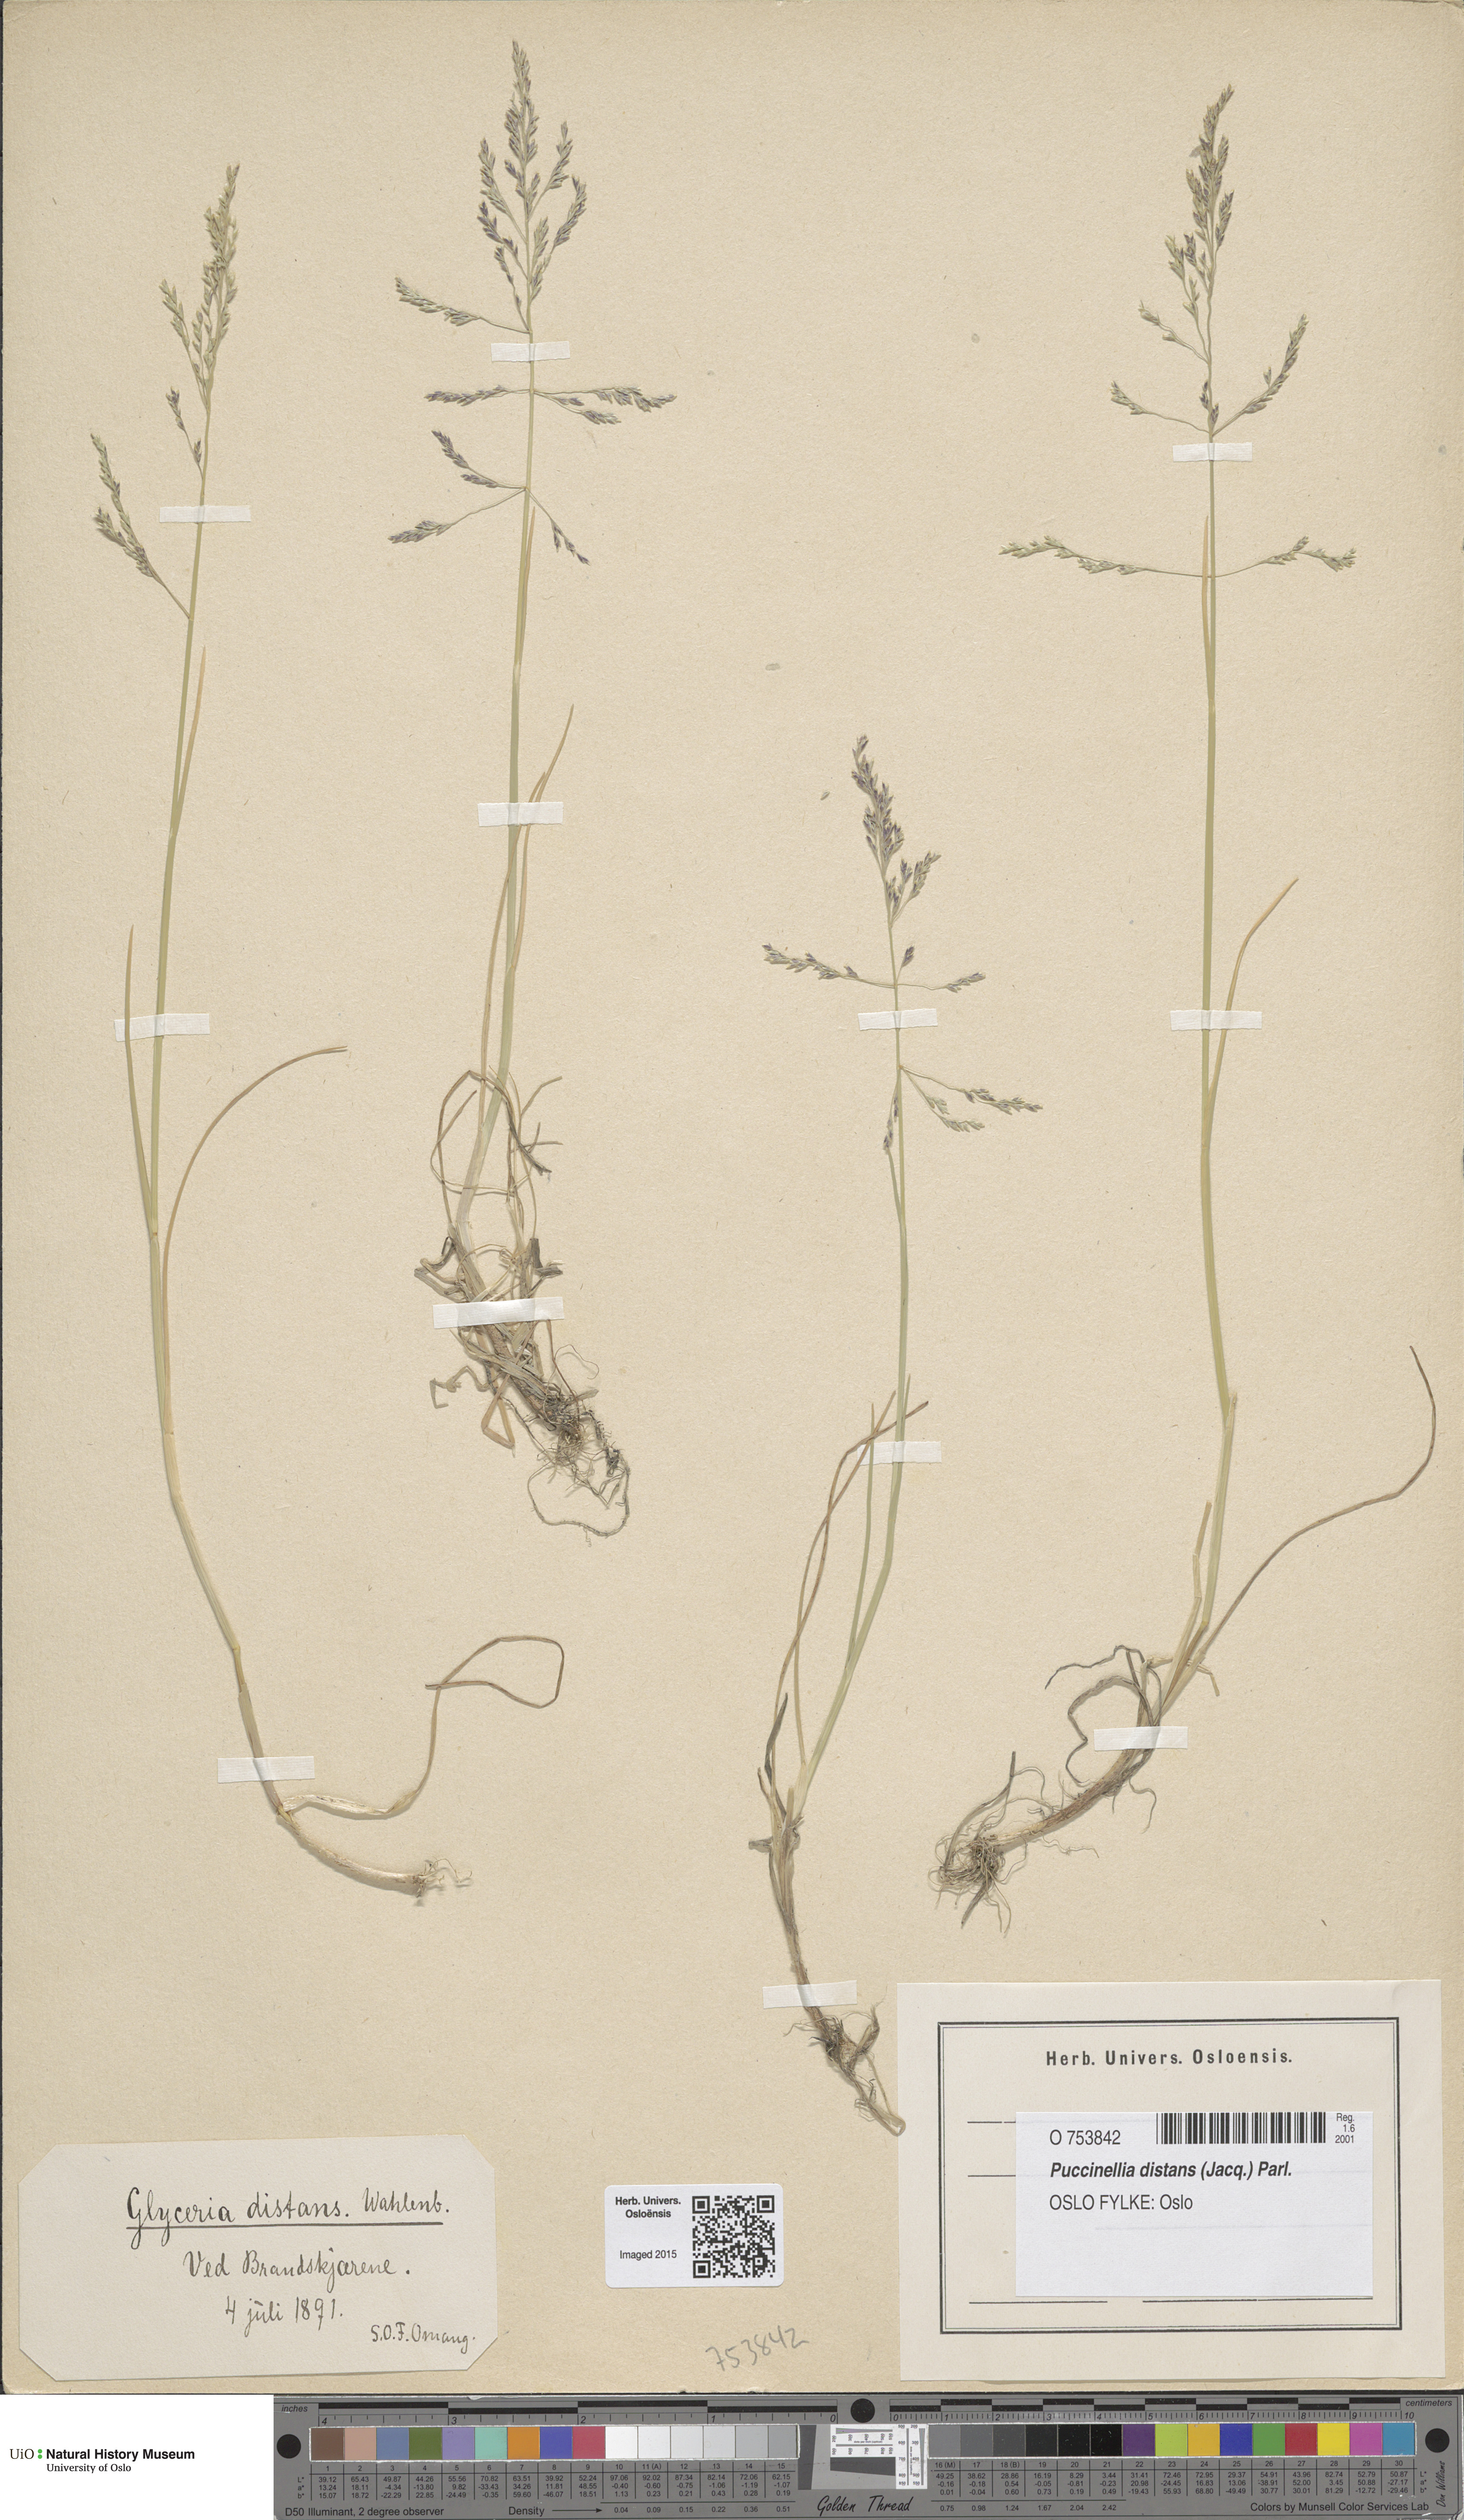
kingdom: Plantae
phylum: Tracheophyta
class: Liliopsida
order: Poales
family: Poaceae
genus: Puccinellia
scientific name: Puccinellia distans
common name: Weeping alkaligrass
